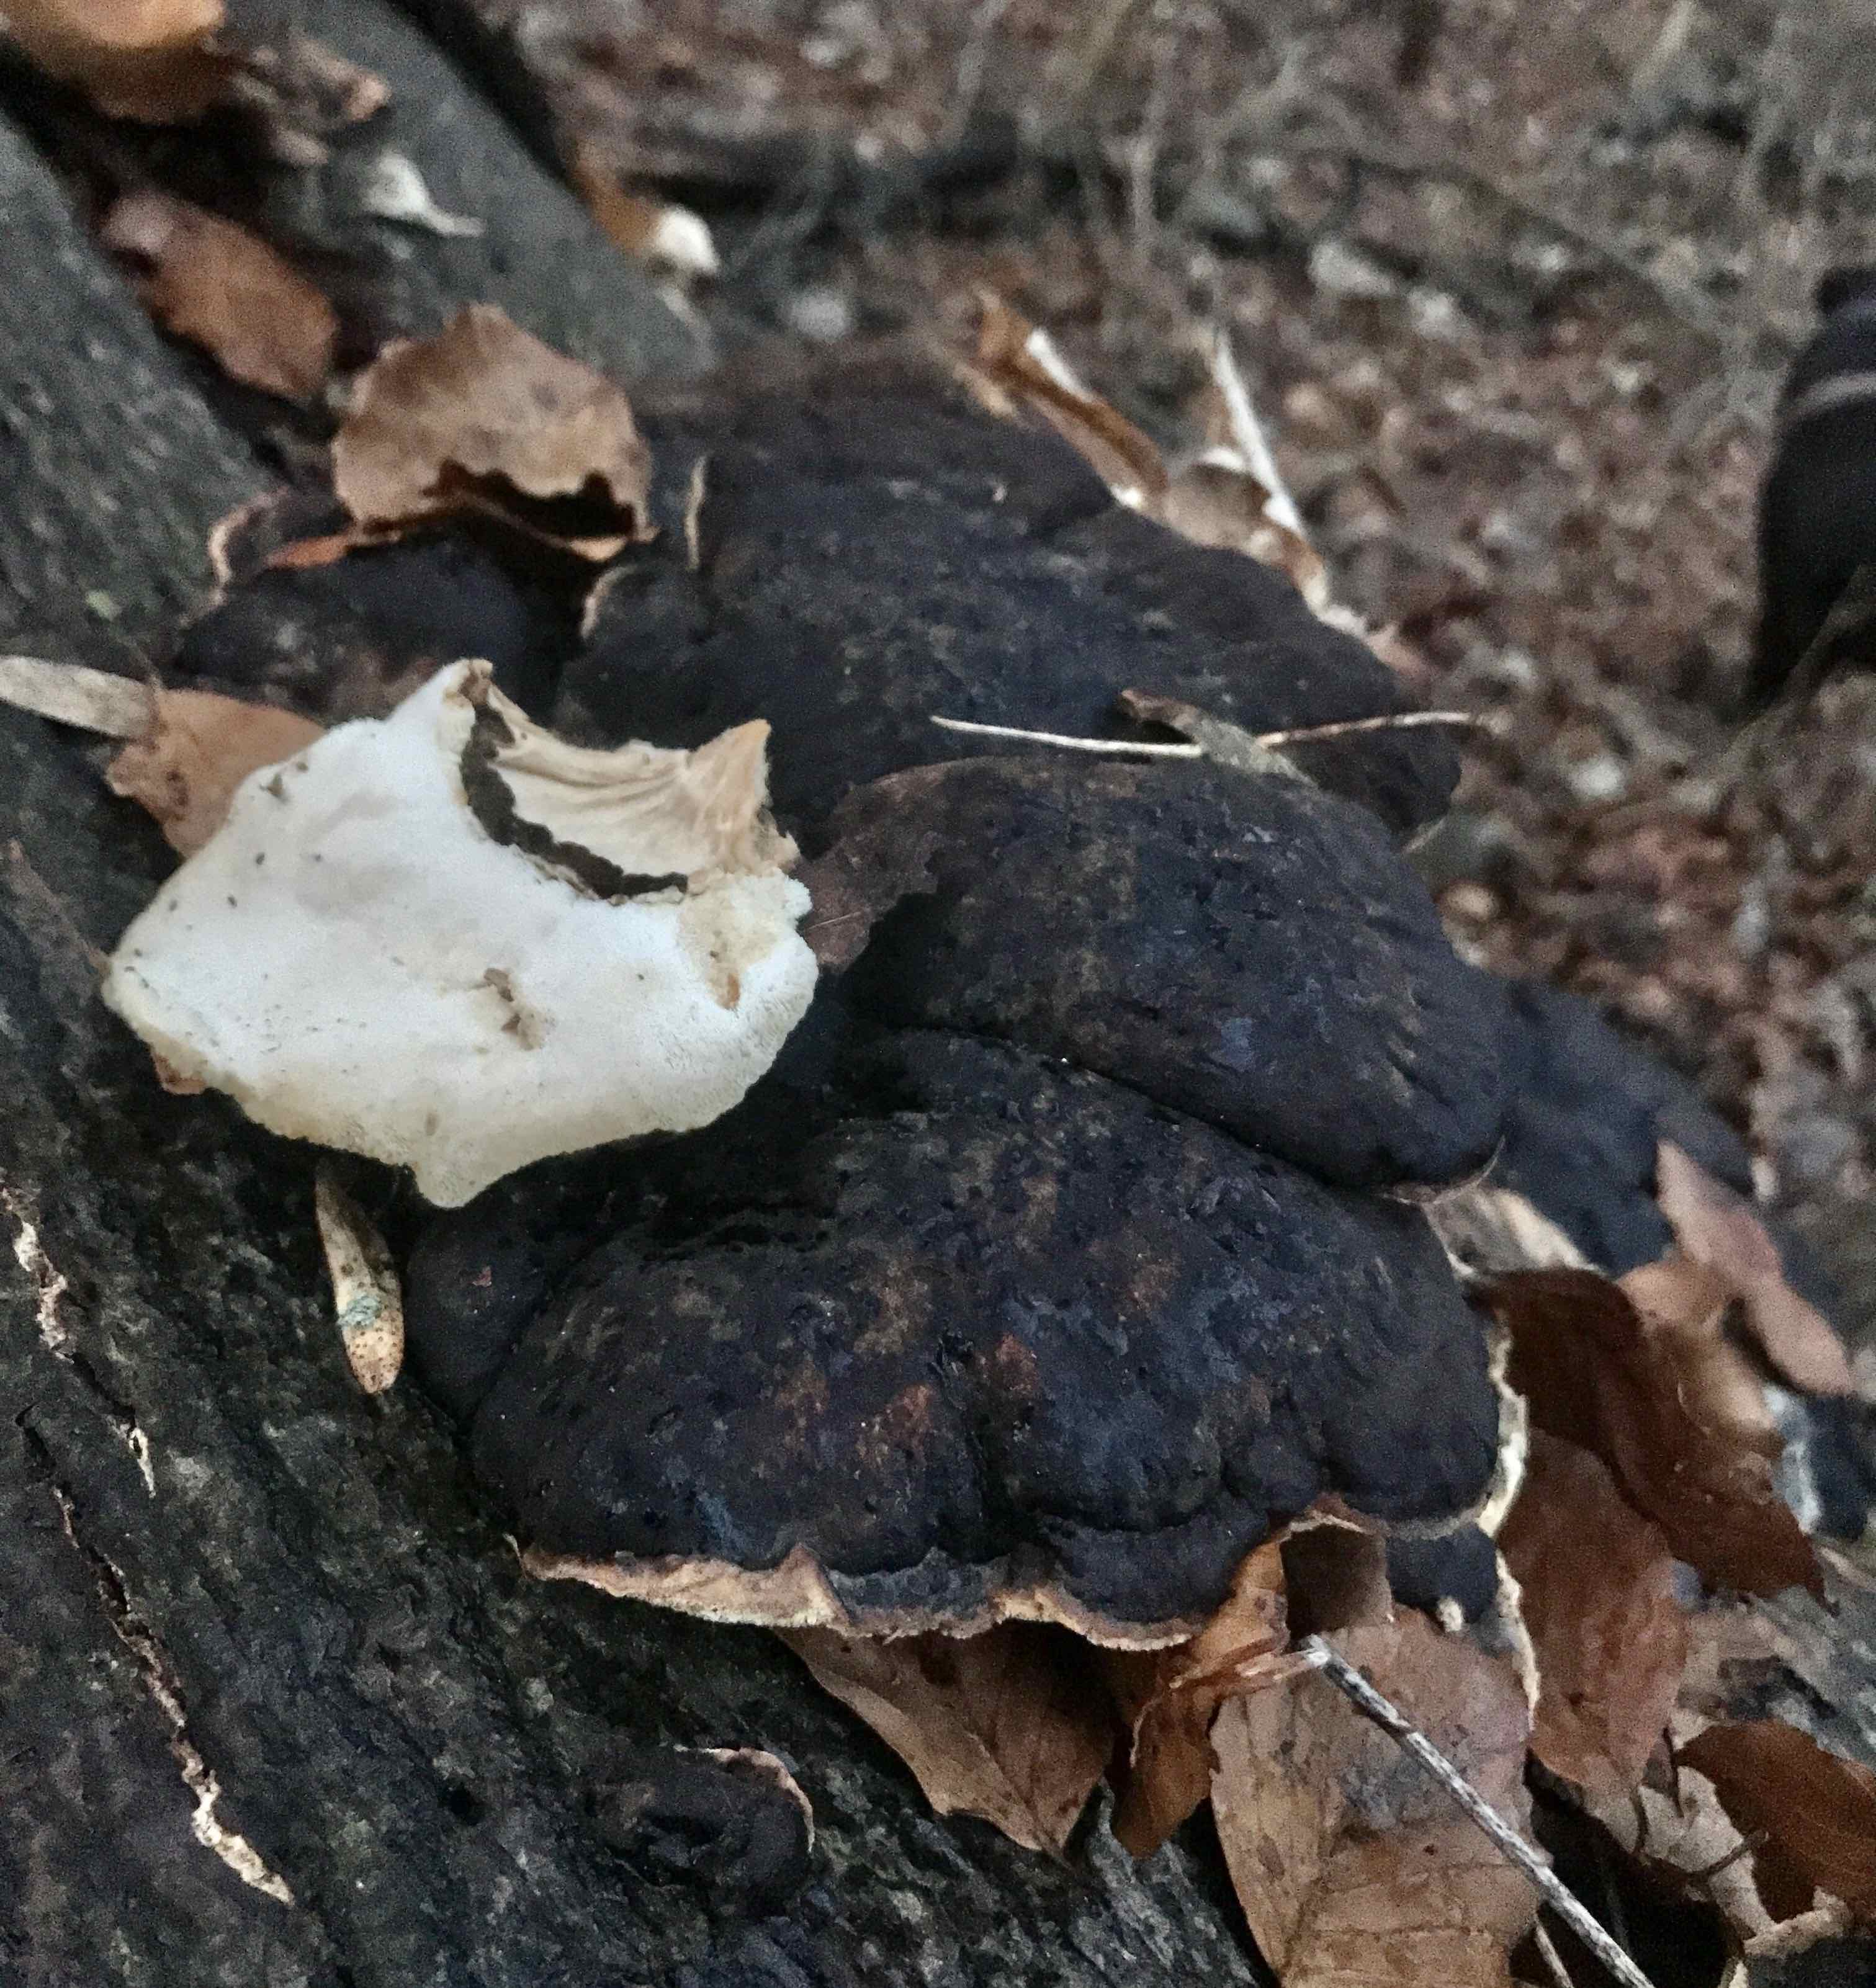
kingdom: Fungi
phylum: Basidiomycota
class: Agaricomycetes
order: Polyporales
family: Ischnodermataceae
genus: Ischnoderma
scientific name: Ischnoderma resinosum
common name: løv-tjæreporesvamp
